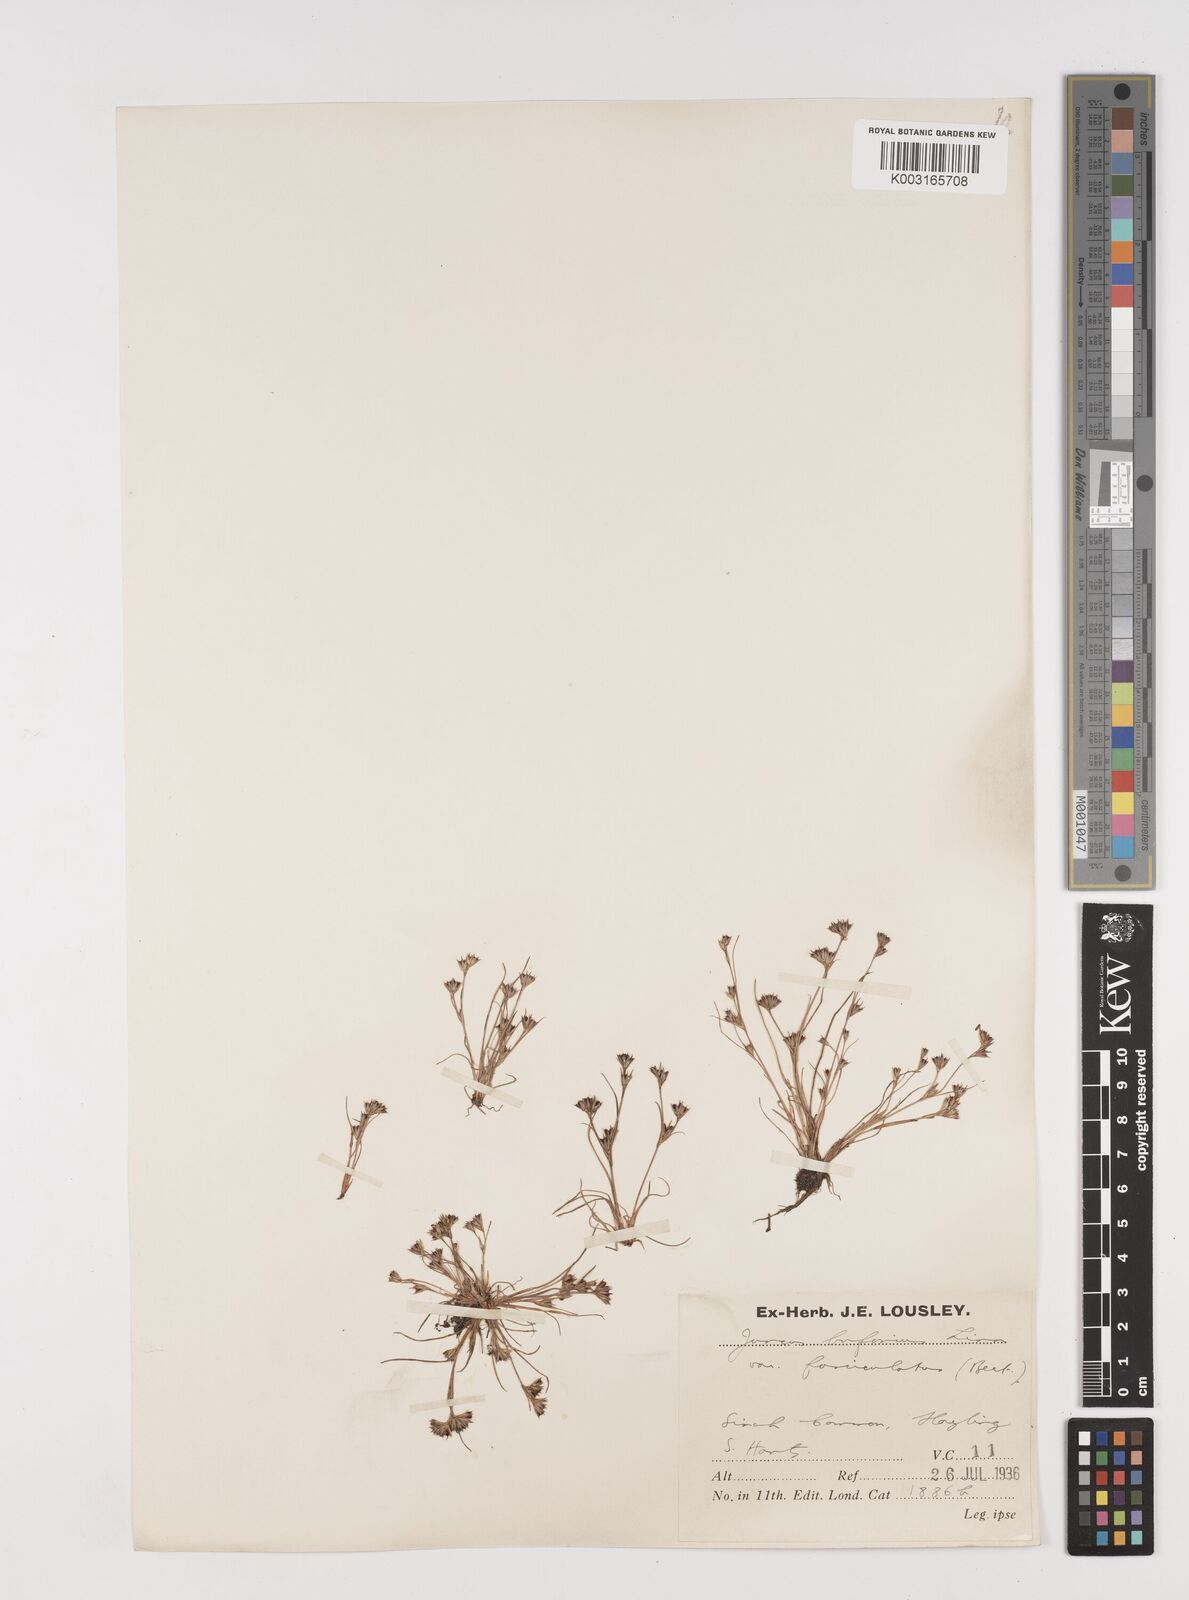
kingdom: Plantae
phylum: Tracheophyta
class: Liliopsida
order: Poales
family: Juncaceae
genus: Juncus
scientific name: Juncus bufonius
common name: Toad rush
